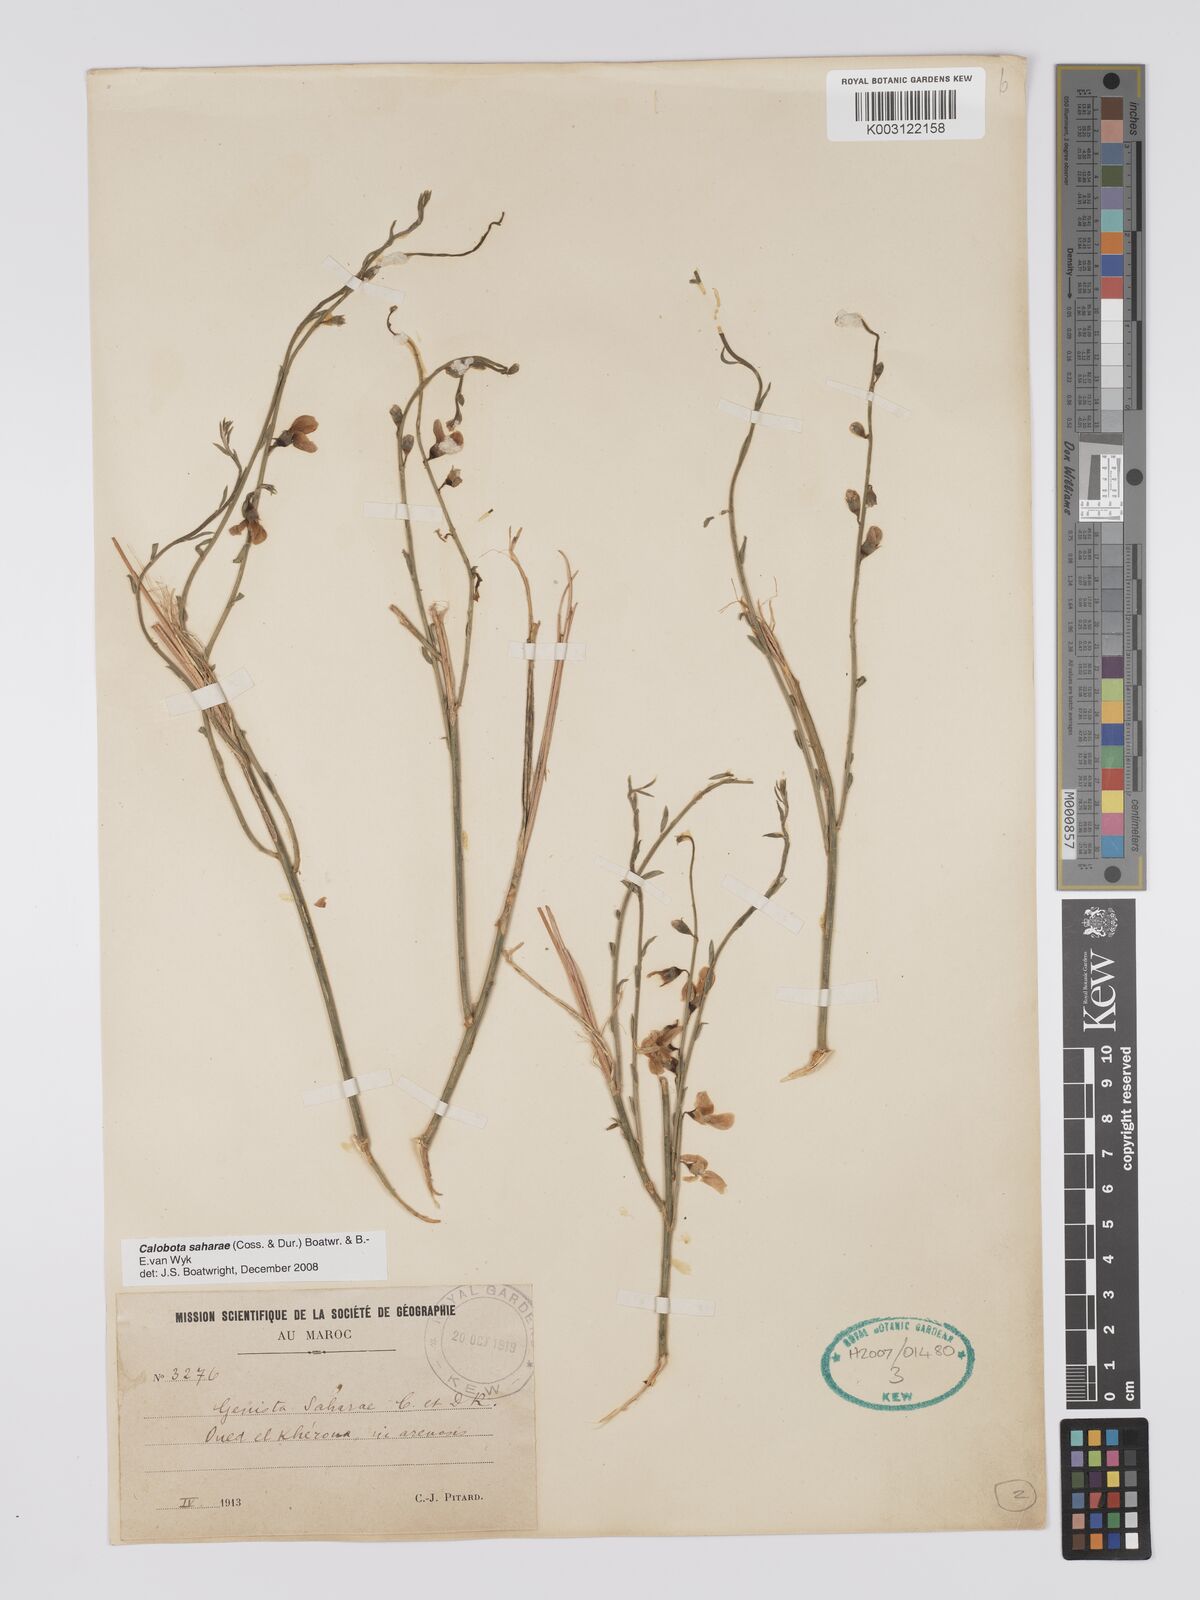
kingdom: Plantae
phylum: Tracheophyta
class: Magnoliopsida
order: Fabales
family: Fabaceae
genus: Calobota
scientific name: Calobota saharae
